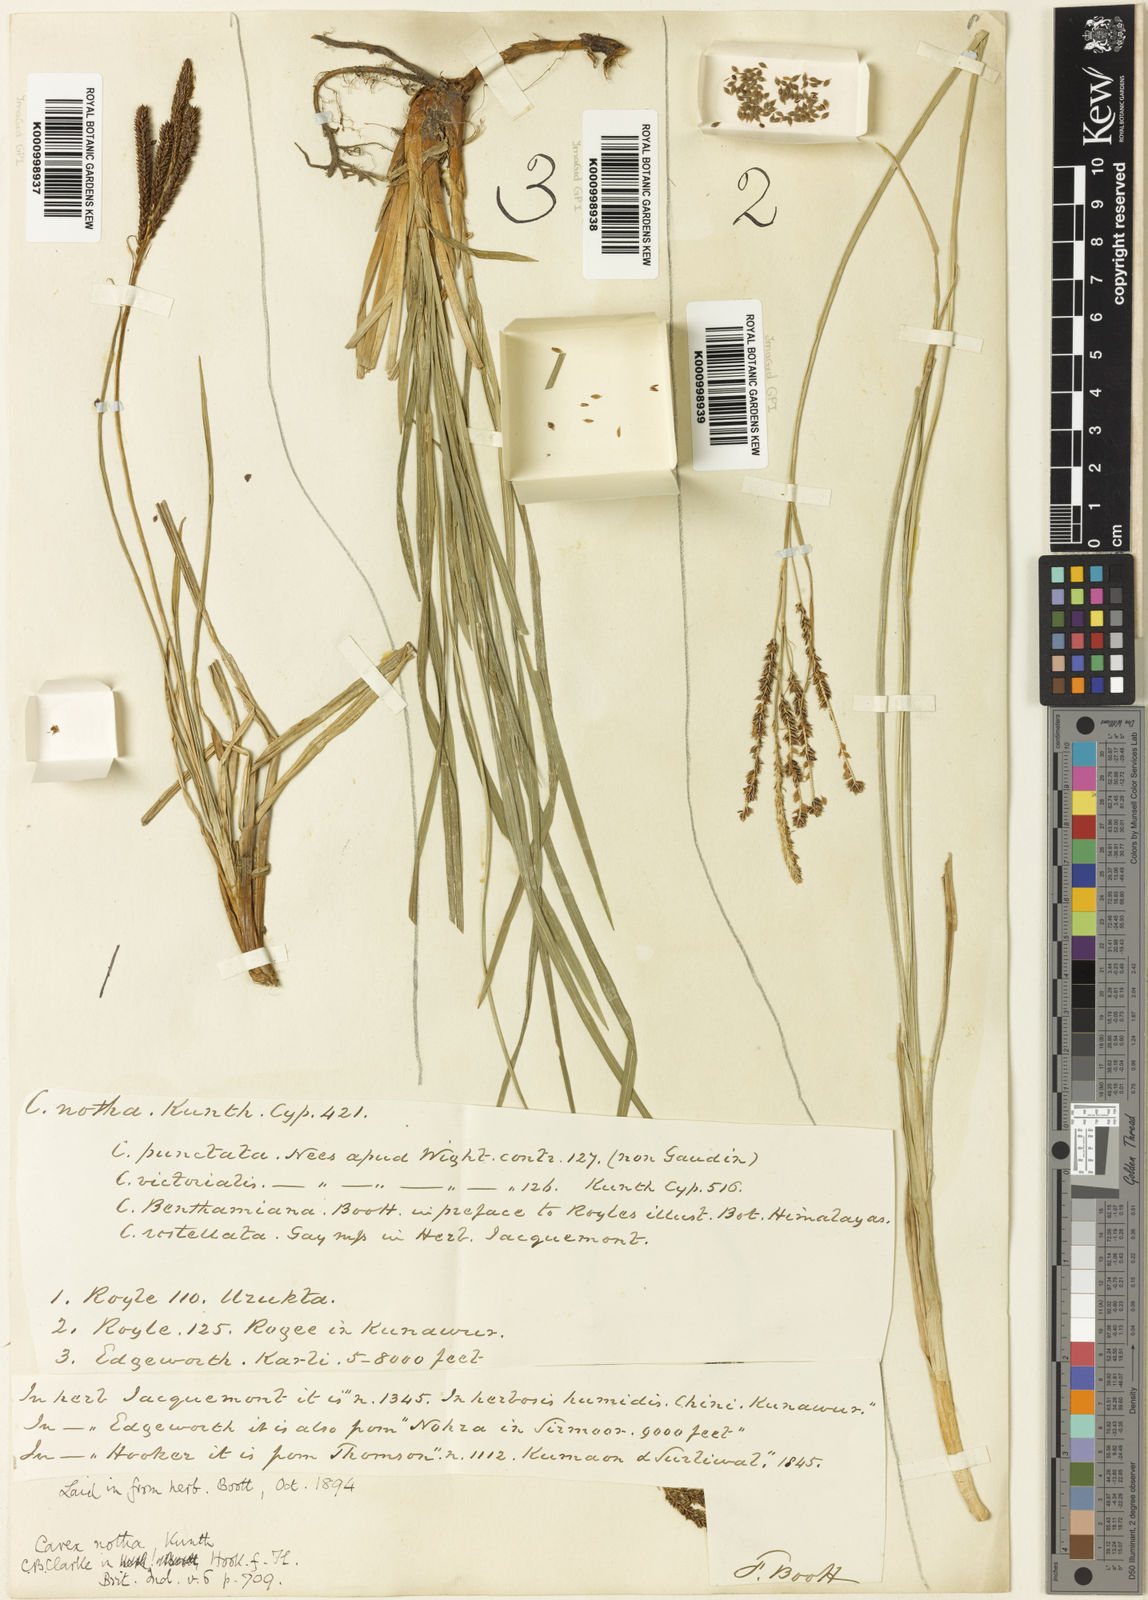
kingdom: Plantae
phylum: Tracheophyta
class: Liliopsida
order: Poales
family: Cyperaceae
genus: Carex
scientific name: Carex notha
